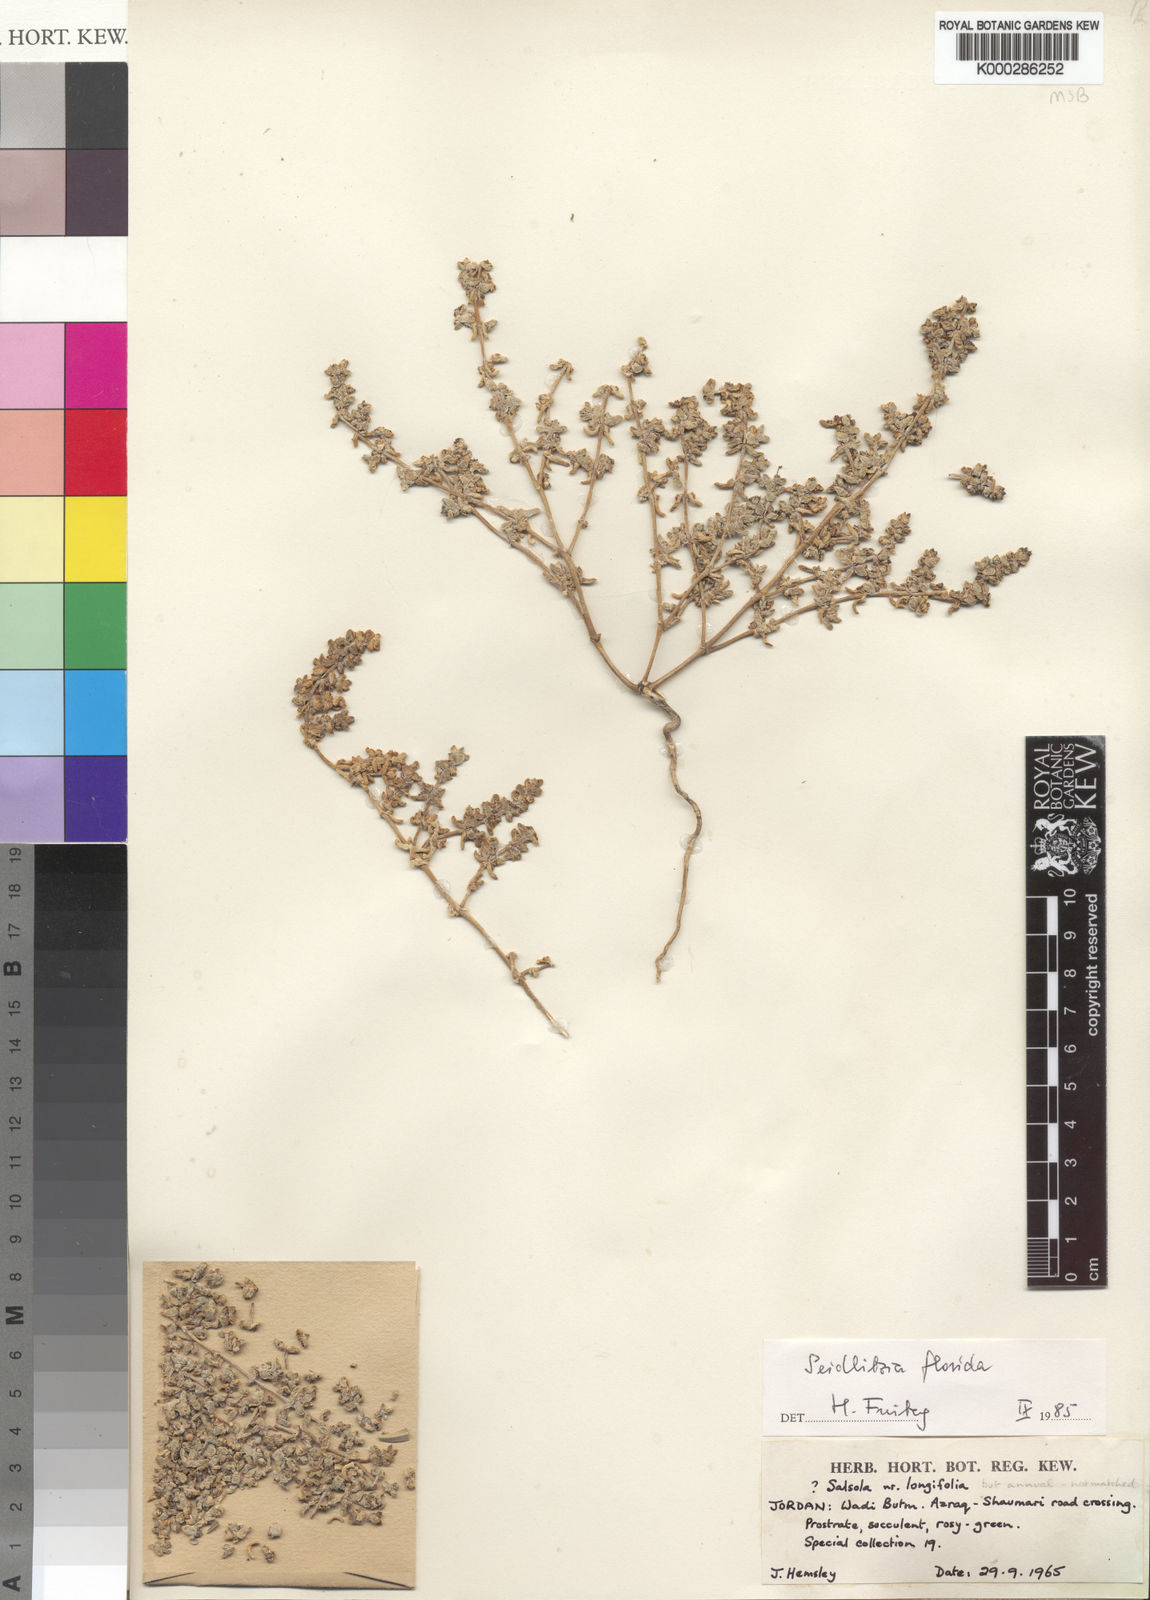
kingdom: Plantae
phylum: Tracheophyta
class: Magnoliopsida
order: Caryophyllales
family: Amaranthaceae
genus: Soda
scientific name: Soda florida
